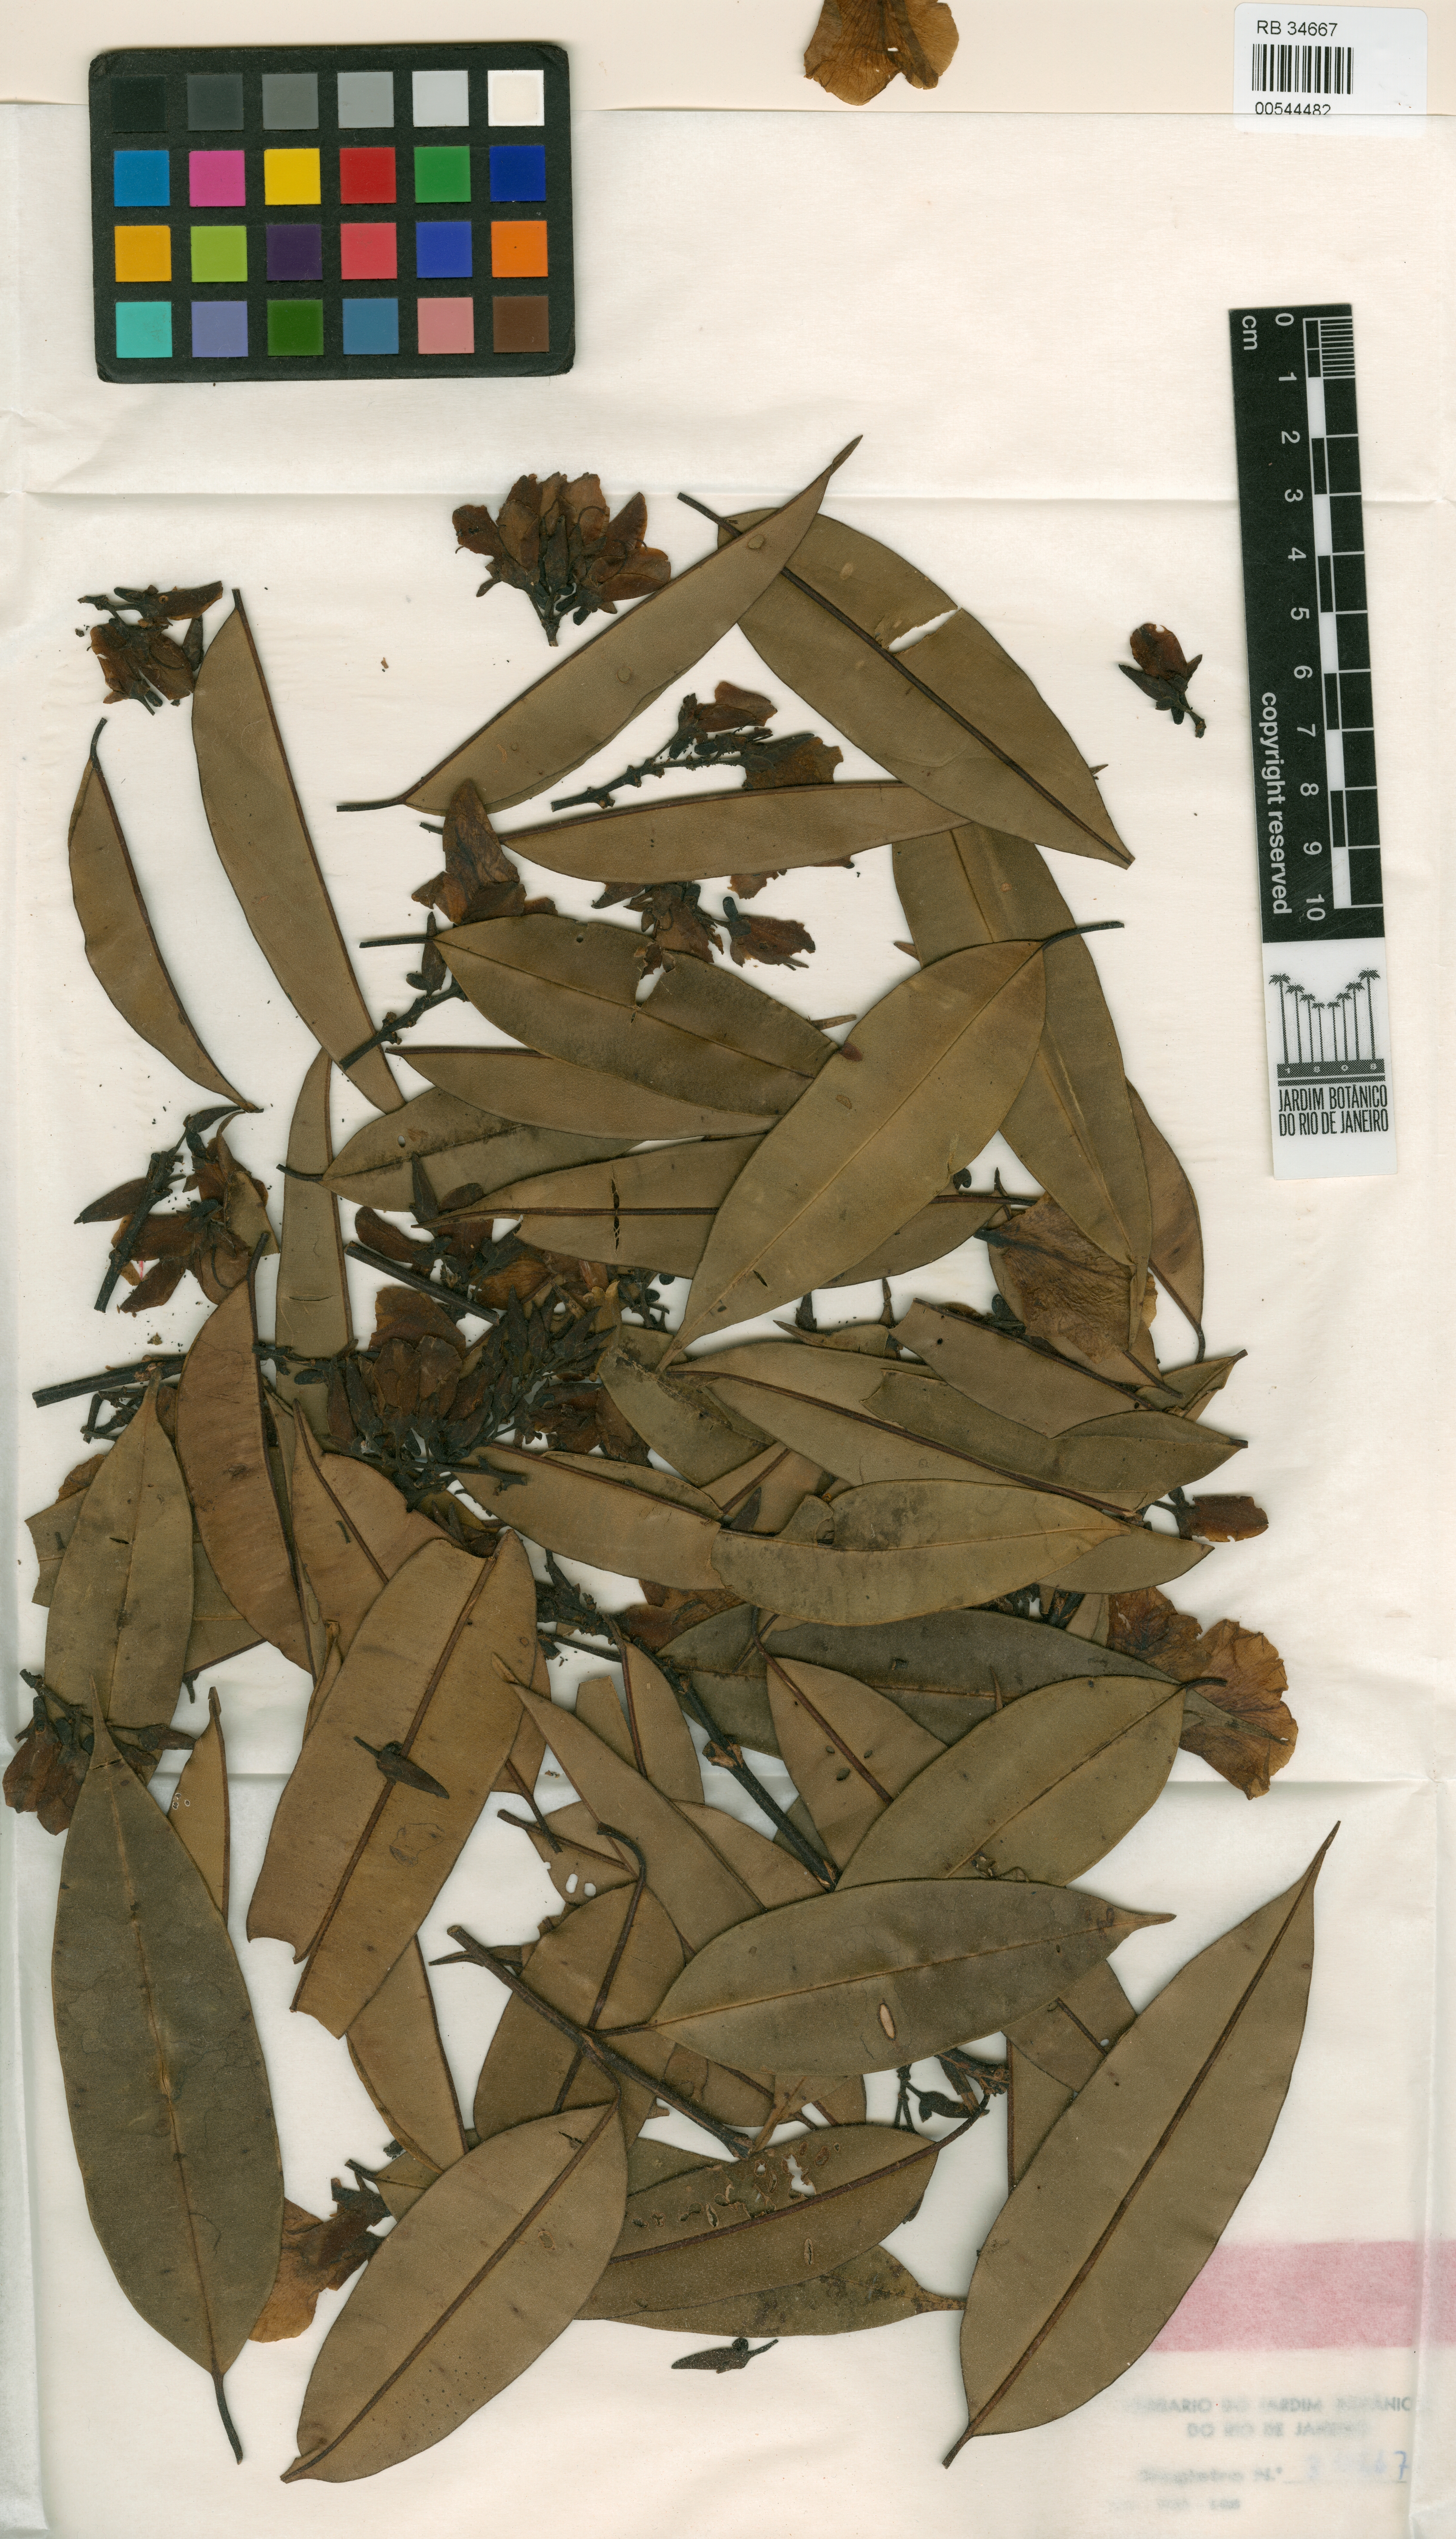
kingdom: Plantae
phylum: Tracheophyta
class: Magnoliopsida
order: Myrtales
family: Vochysiaceae
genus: Qualea
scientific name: Qualea decorticans
